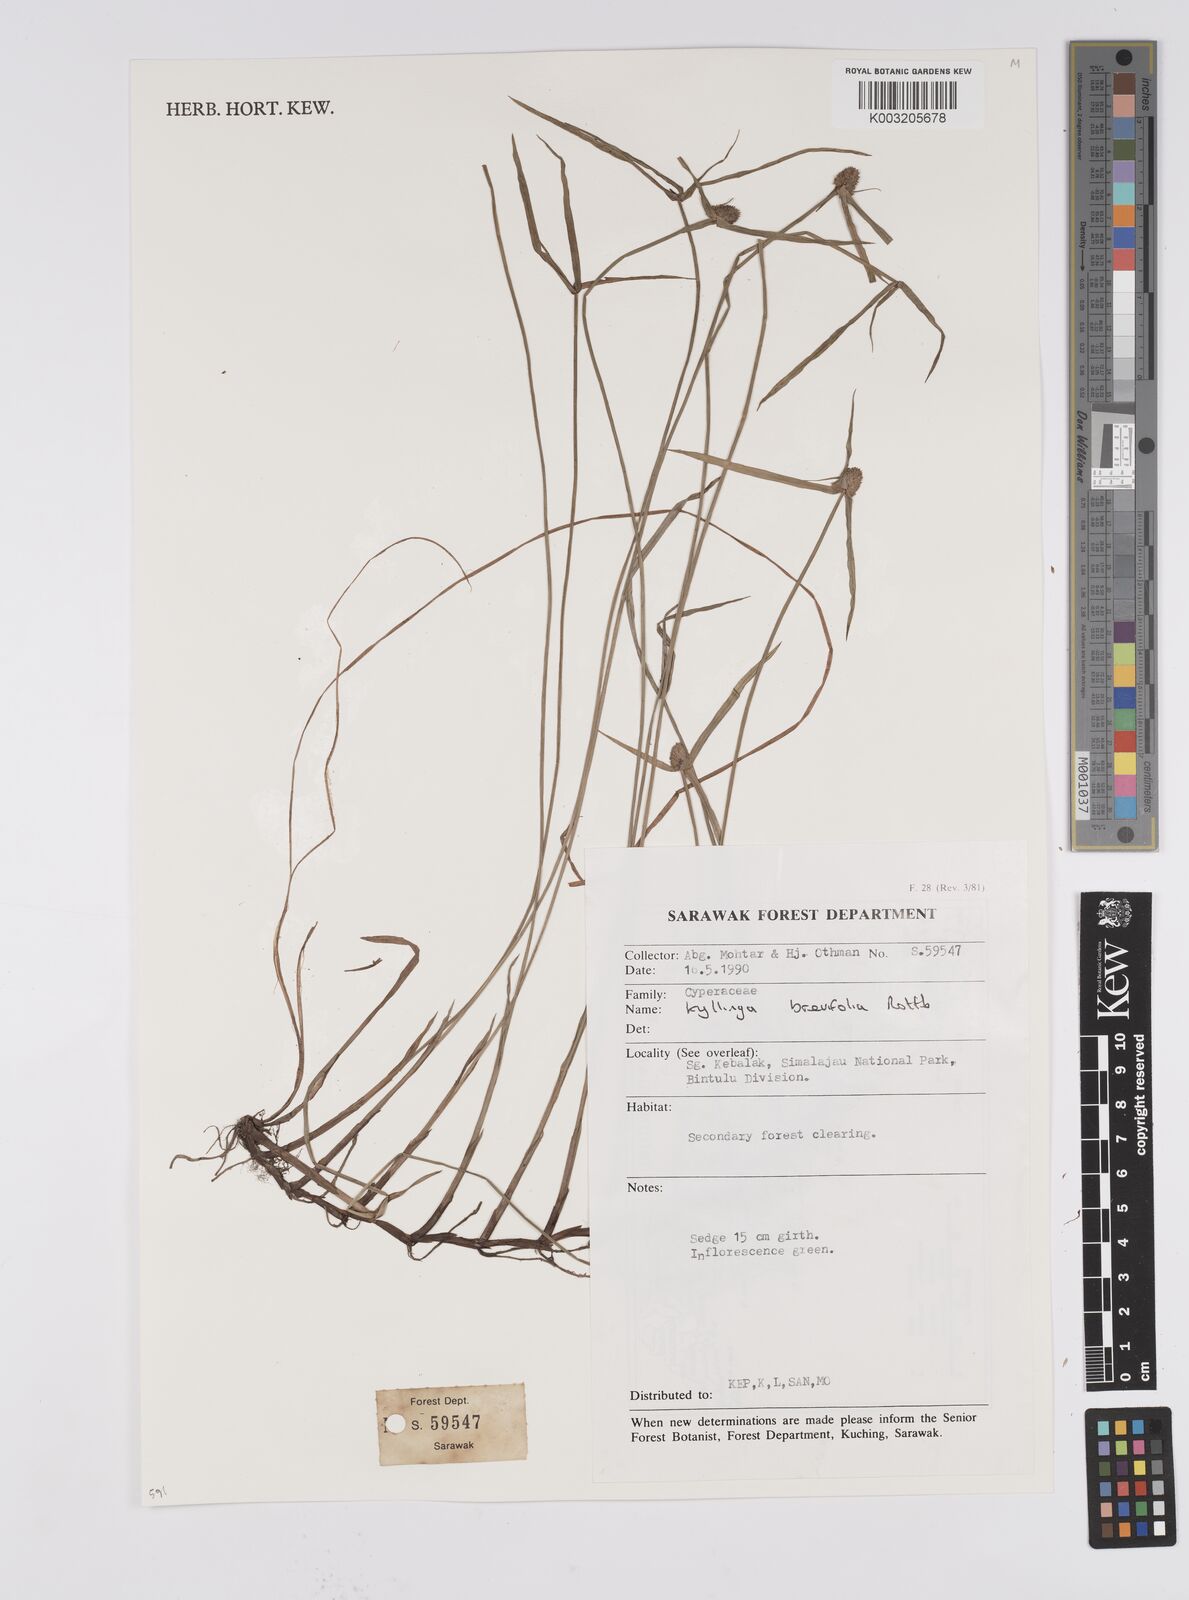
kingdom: Plantae
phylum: Tracheophyta
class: Liliopsida
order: Poales
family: Cyperaceae
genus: Cyperus
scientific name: Cyperus brevifolius
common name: Globe kyllinga
